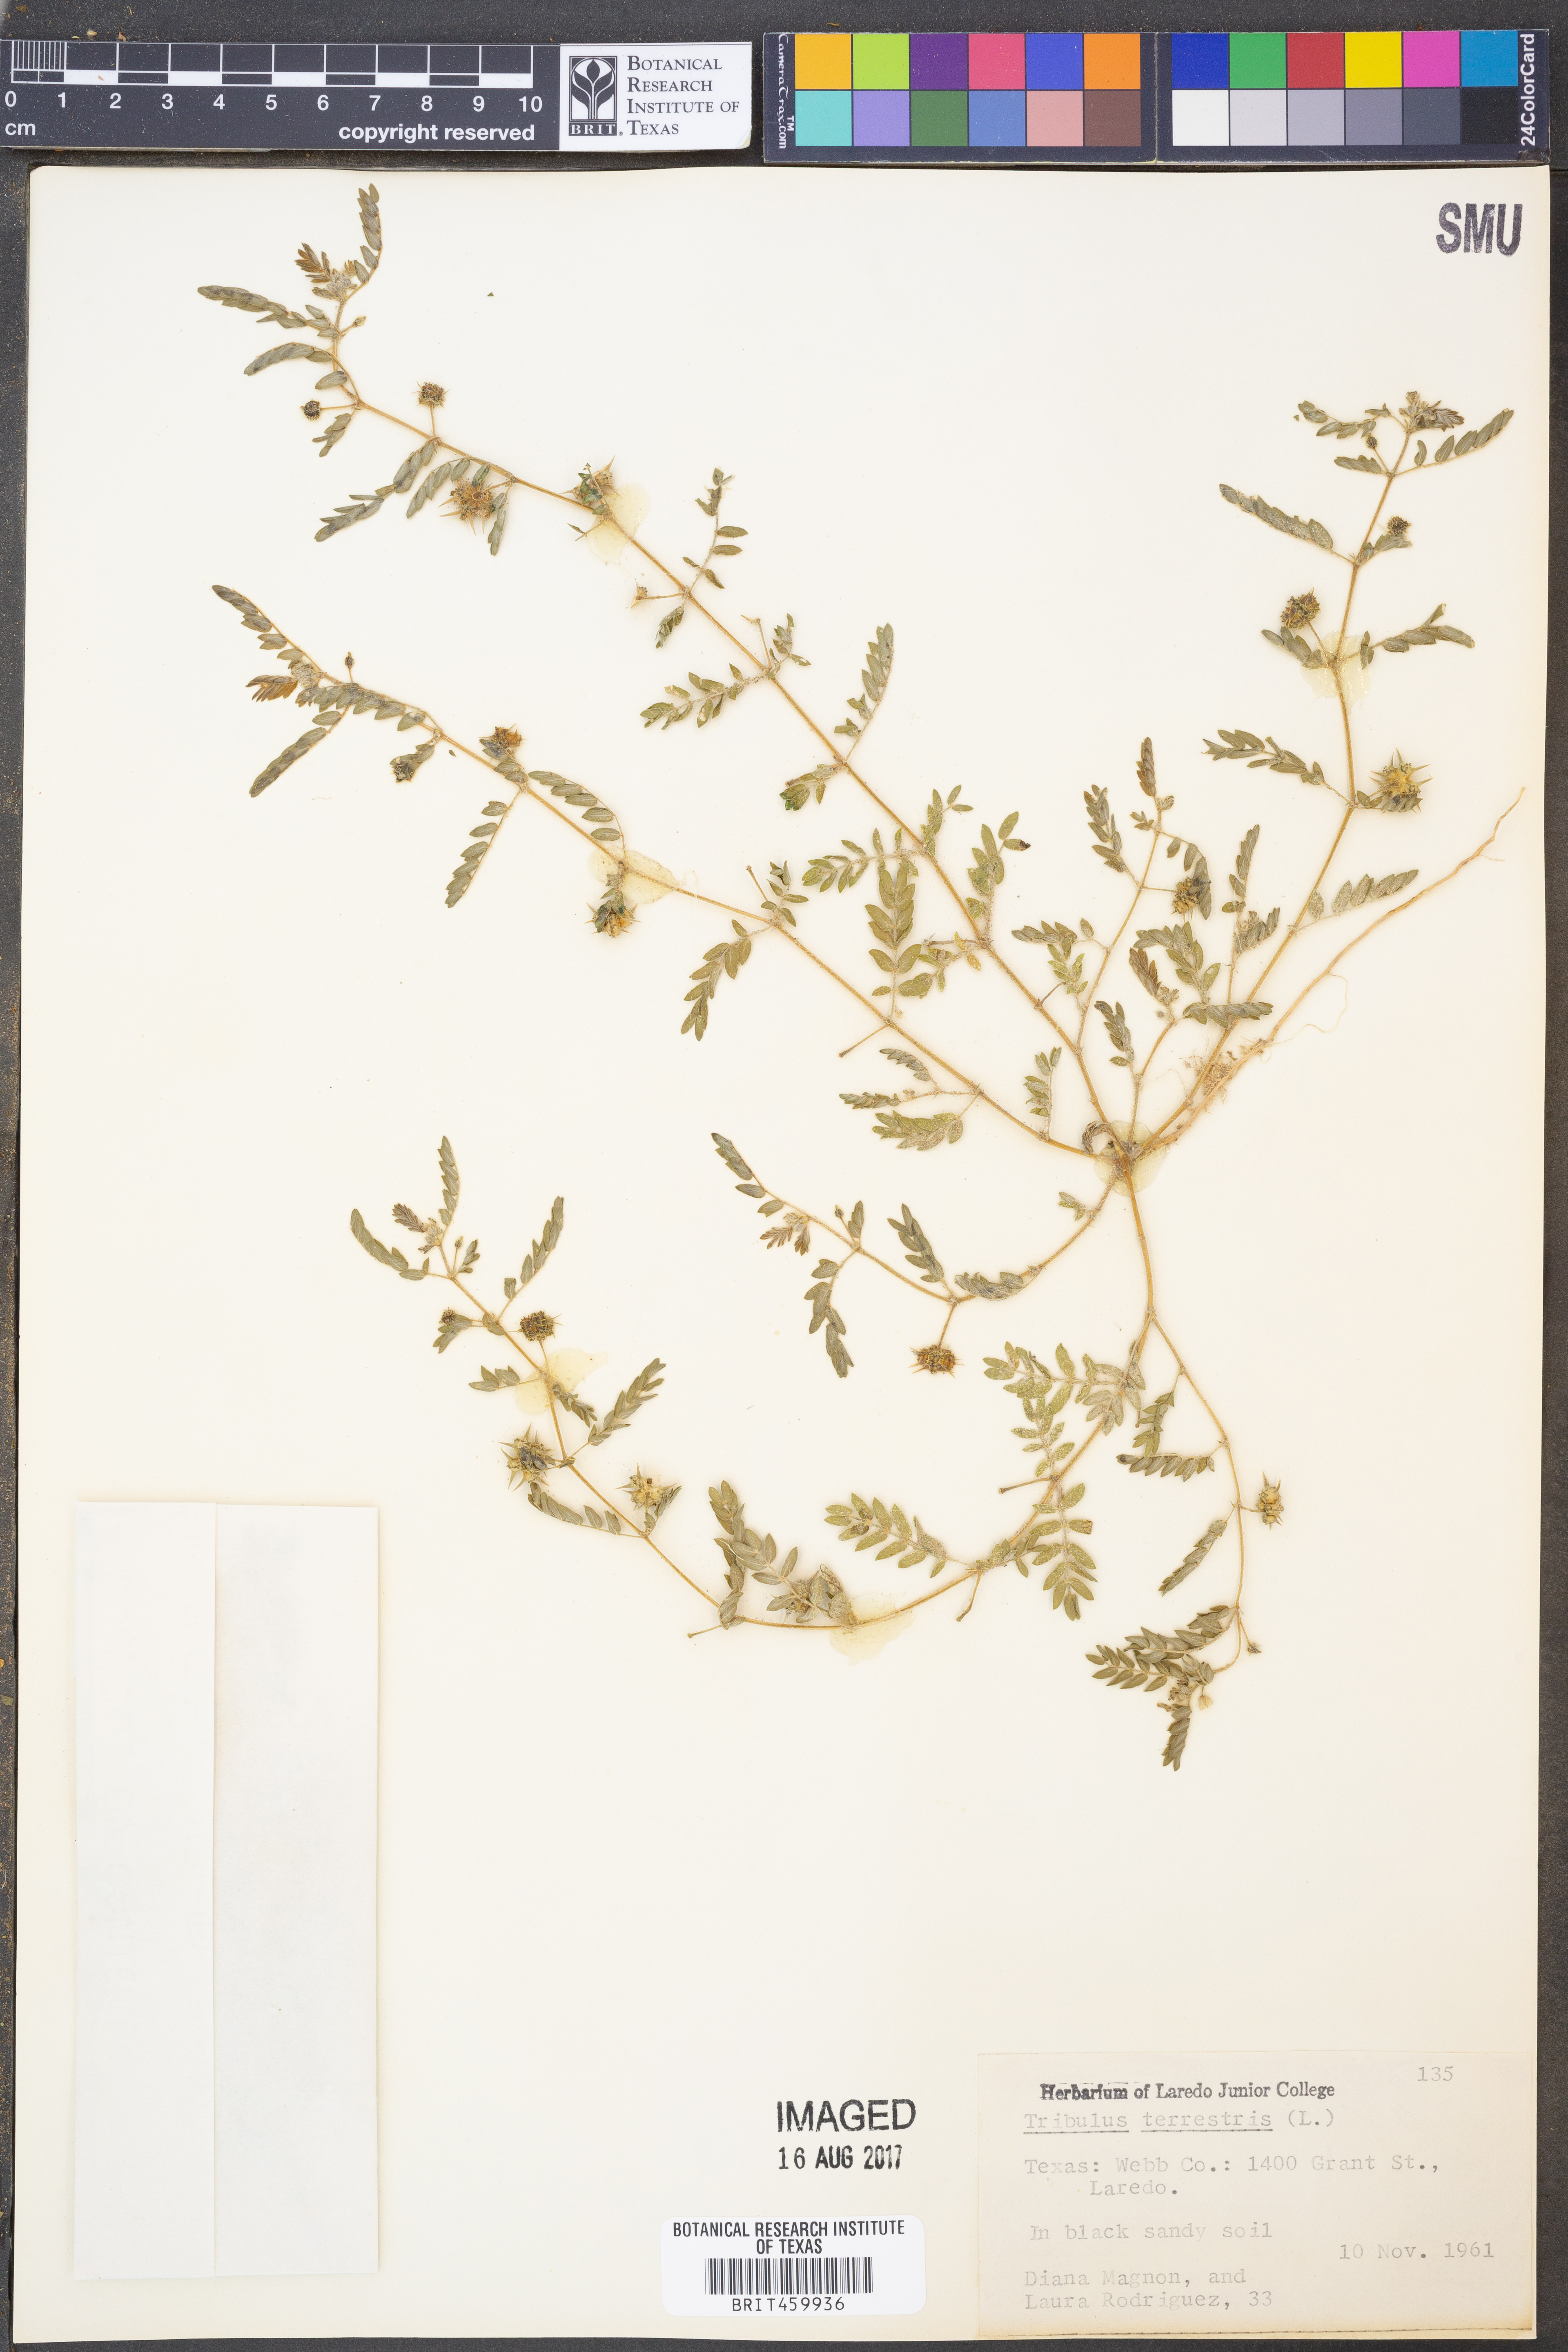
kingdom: Plantae
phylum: Tracheophyta
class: Magnoliopsida
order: Zygophyllales
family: Zygophyllaceae
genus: Tribulus
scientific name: Tribulus terrestris
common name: Puncturevine
